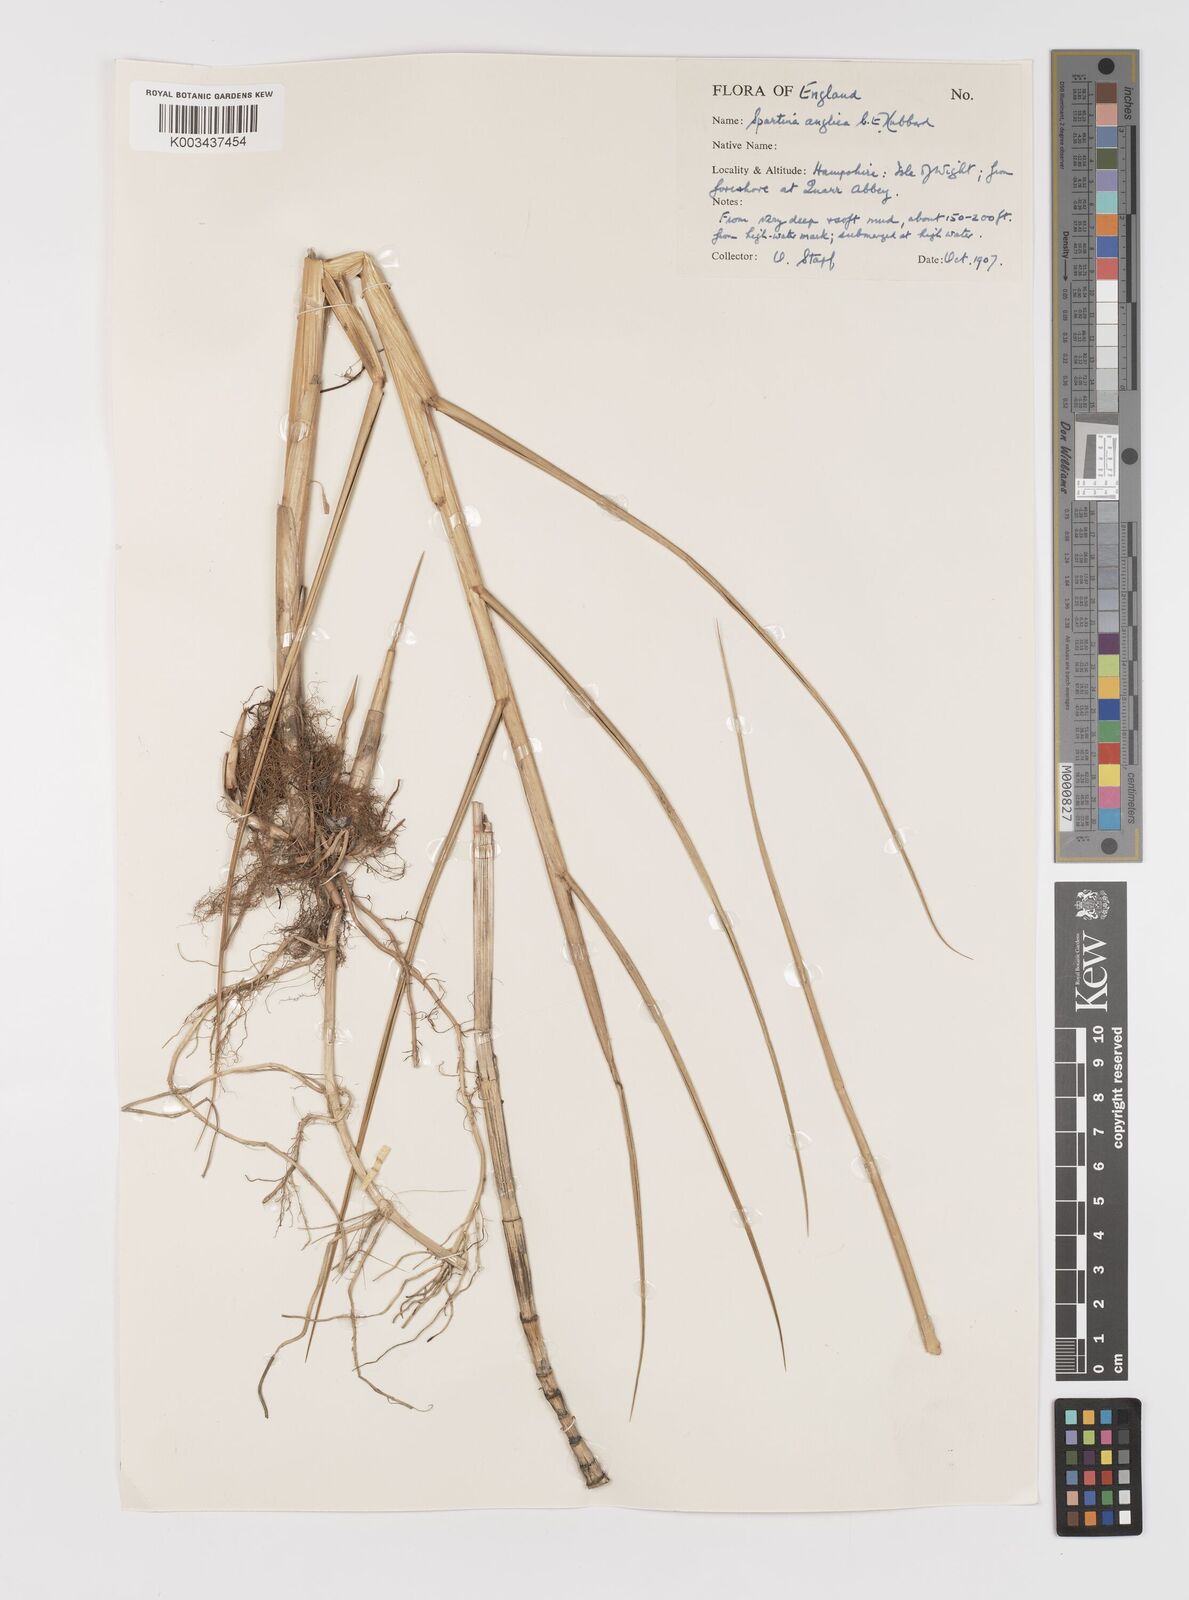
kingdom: Plantae
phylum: Tracheophyta
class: Liliopsida
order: Poales
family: Poaceae
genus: Sporobolus
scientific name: Sporobolus anglicus
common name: English cordgrass
